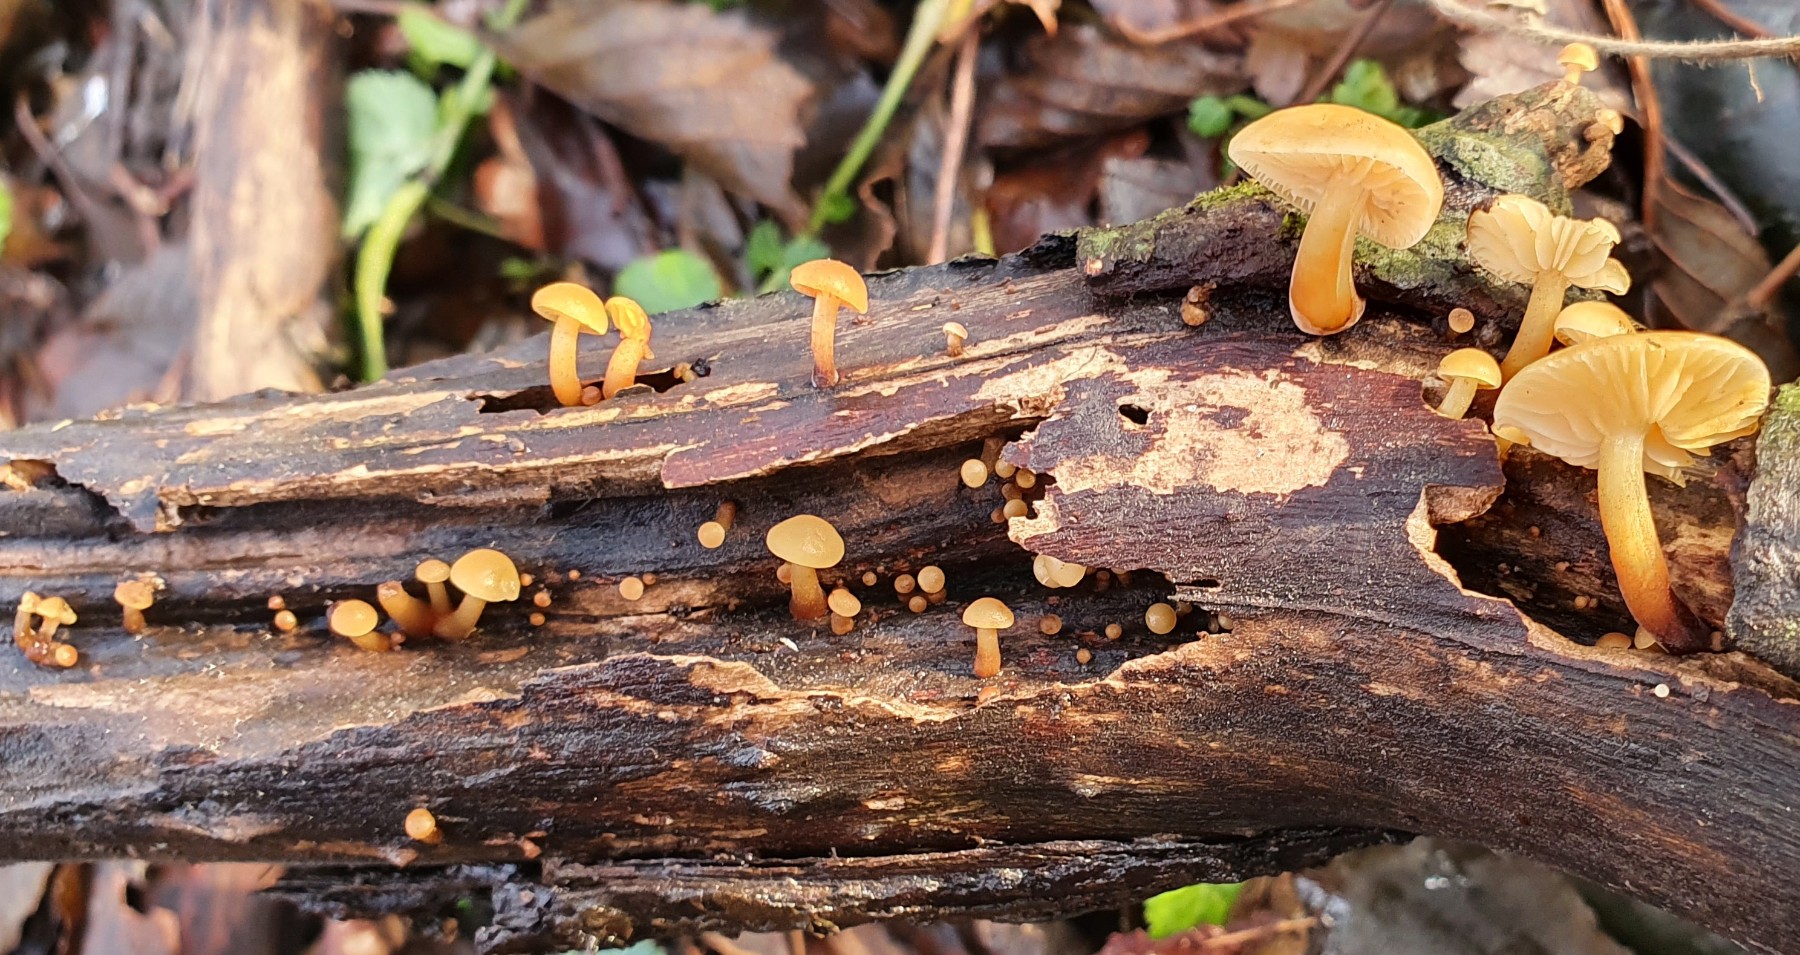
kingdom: Fungi
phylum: Basidiomycota
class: Agaricomycetes
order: Agaricales
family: Physalacriaceae
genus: Flammulina
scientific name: Flammulina
